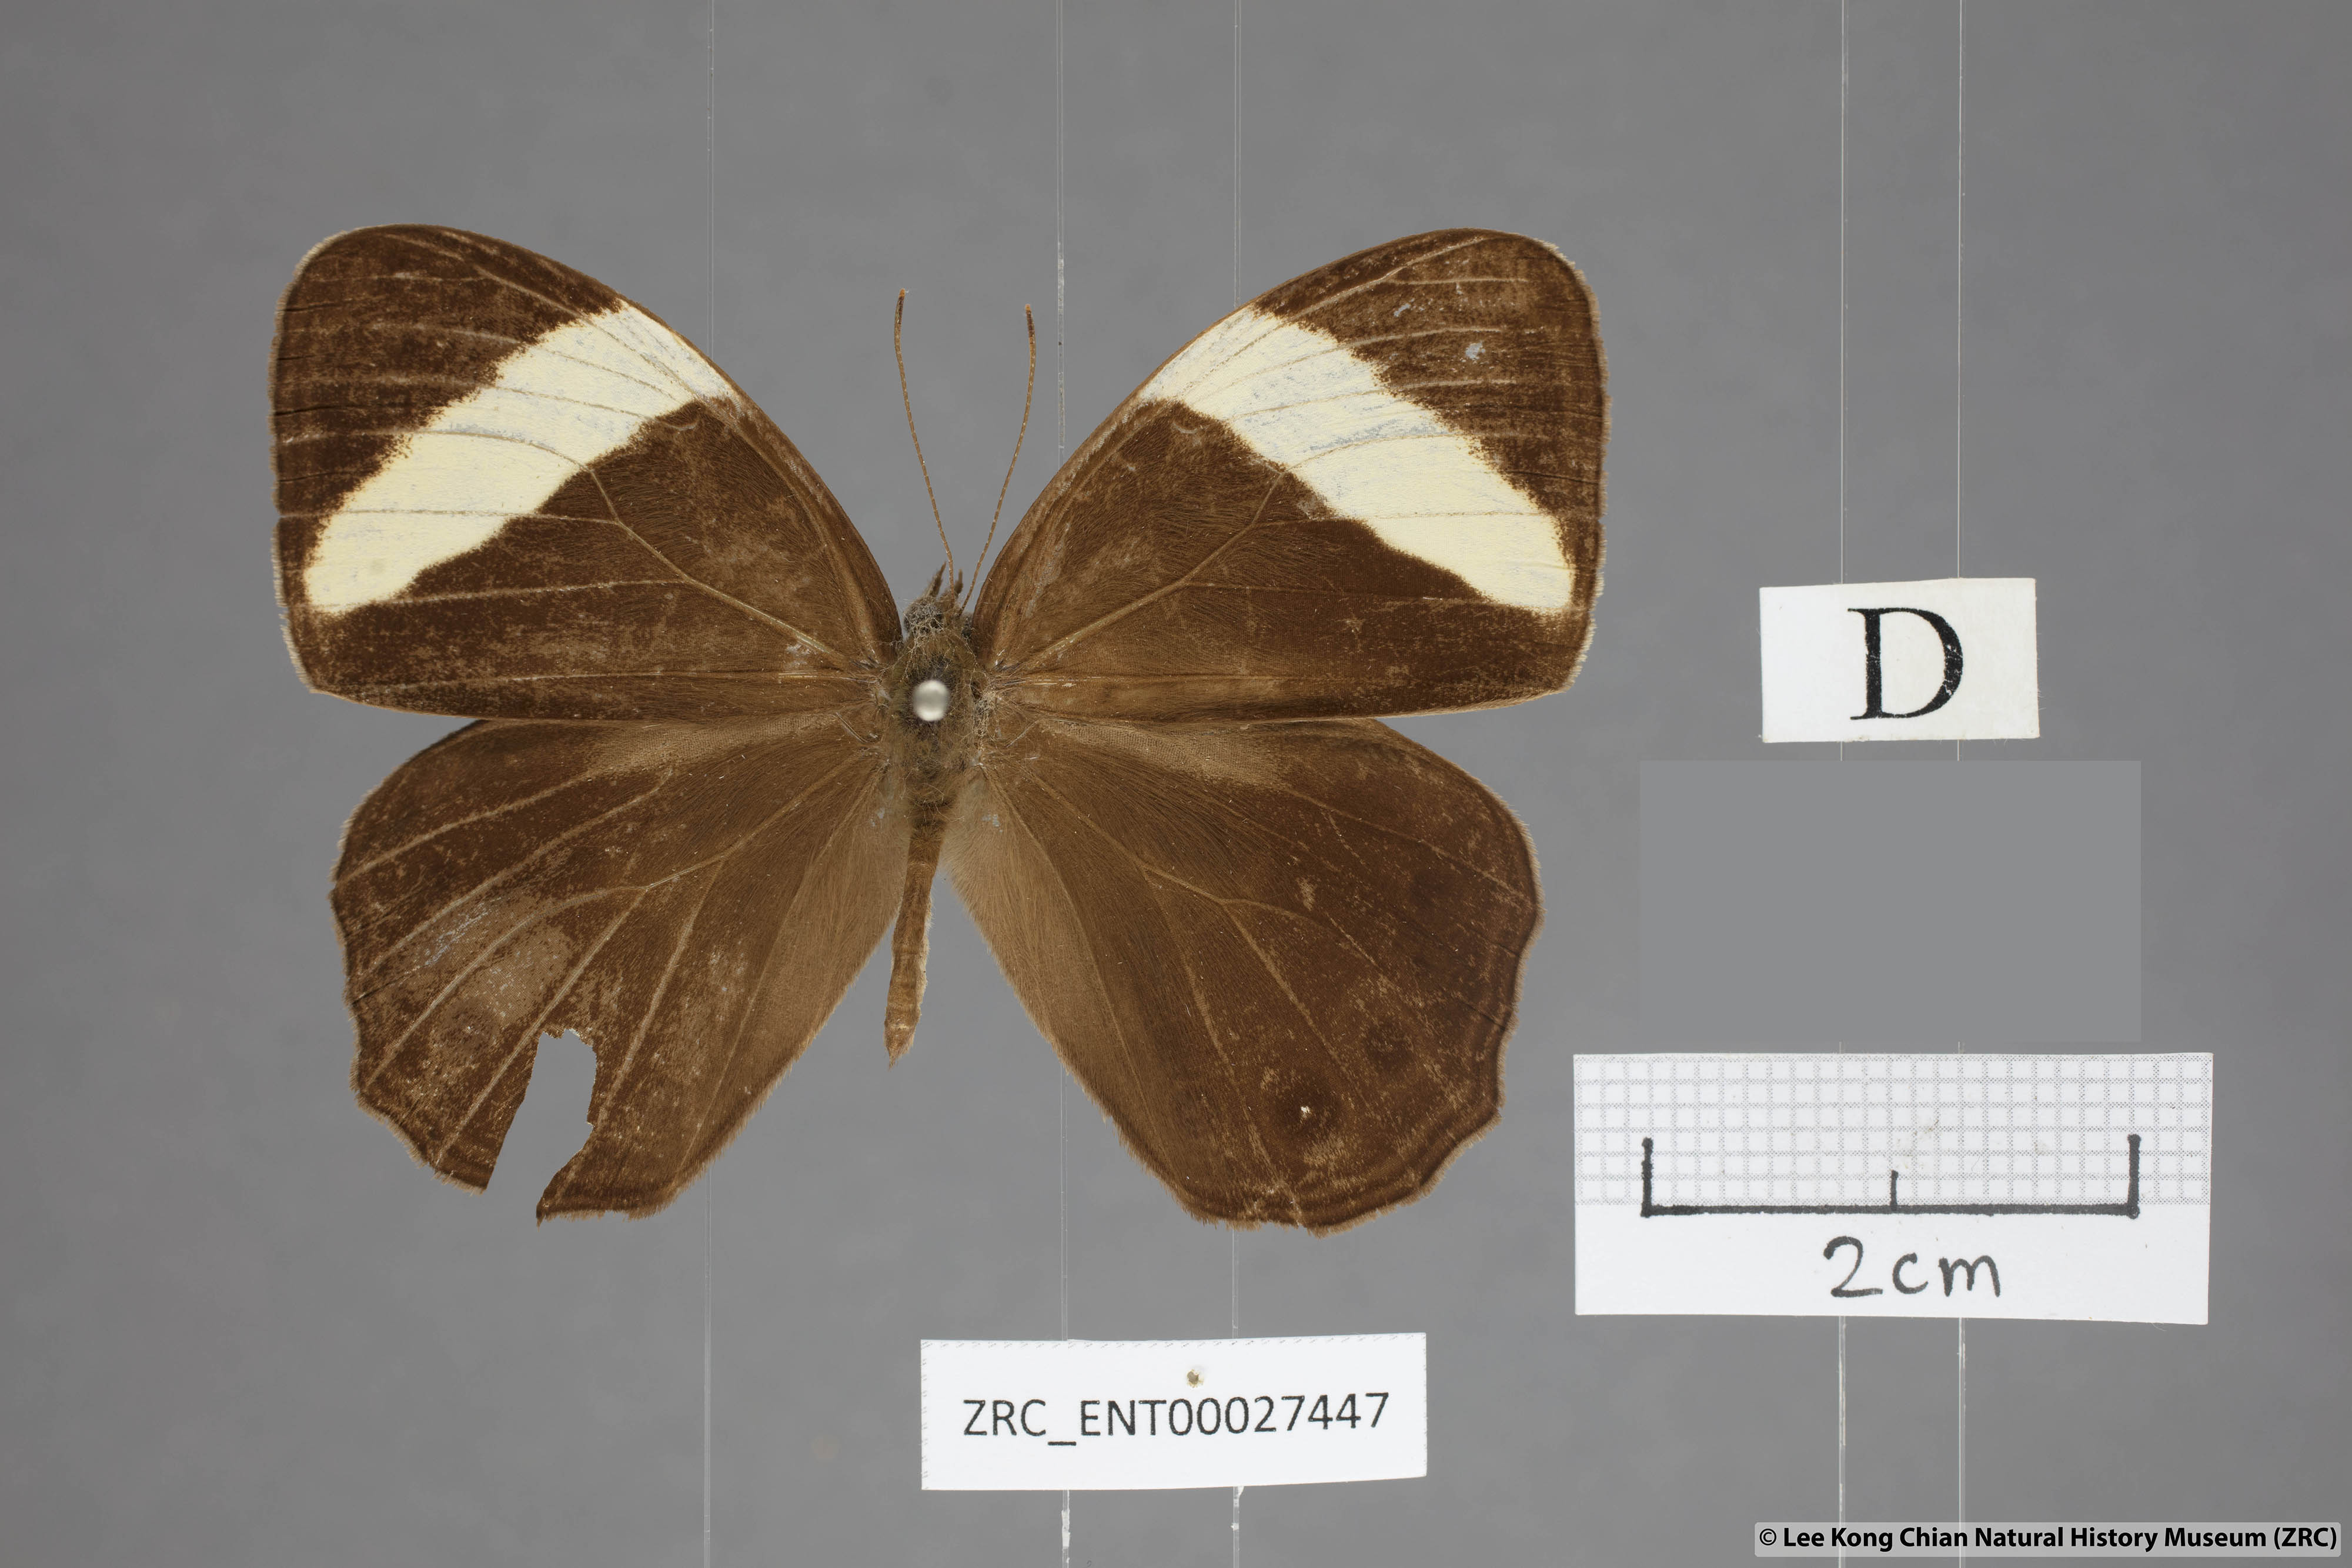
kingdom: Animalia
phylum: Arthropoda
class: Insecta
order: Lepidoptera
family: Nymphalidae
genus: Lethe
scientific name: Lethe verma
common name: Straight-banded treebrown
